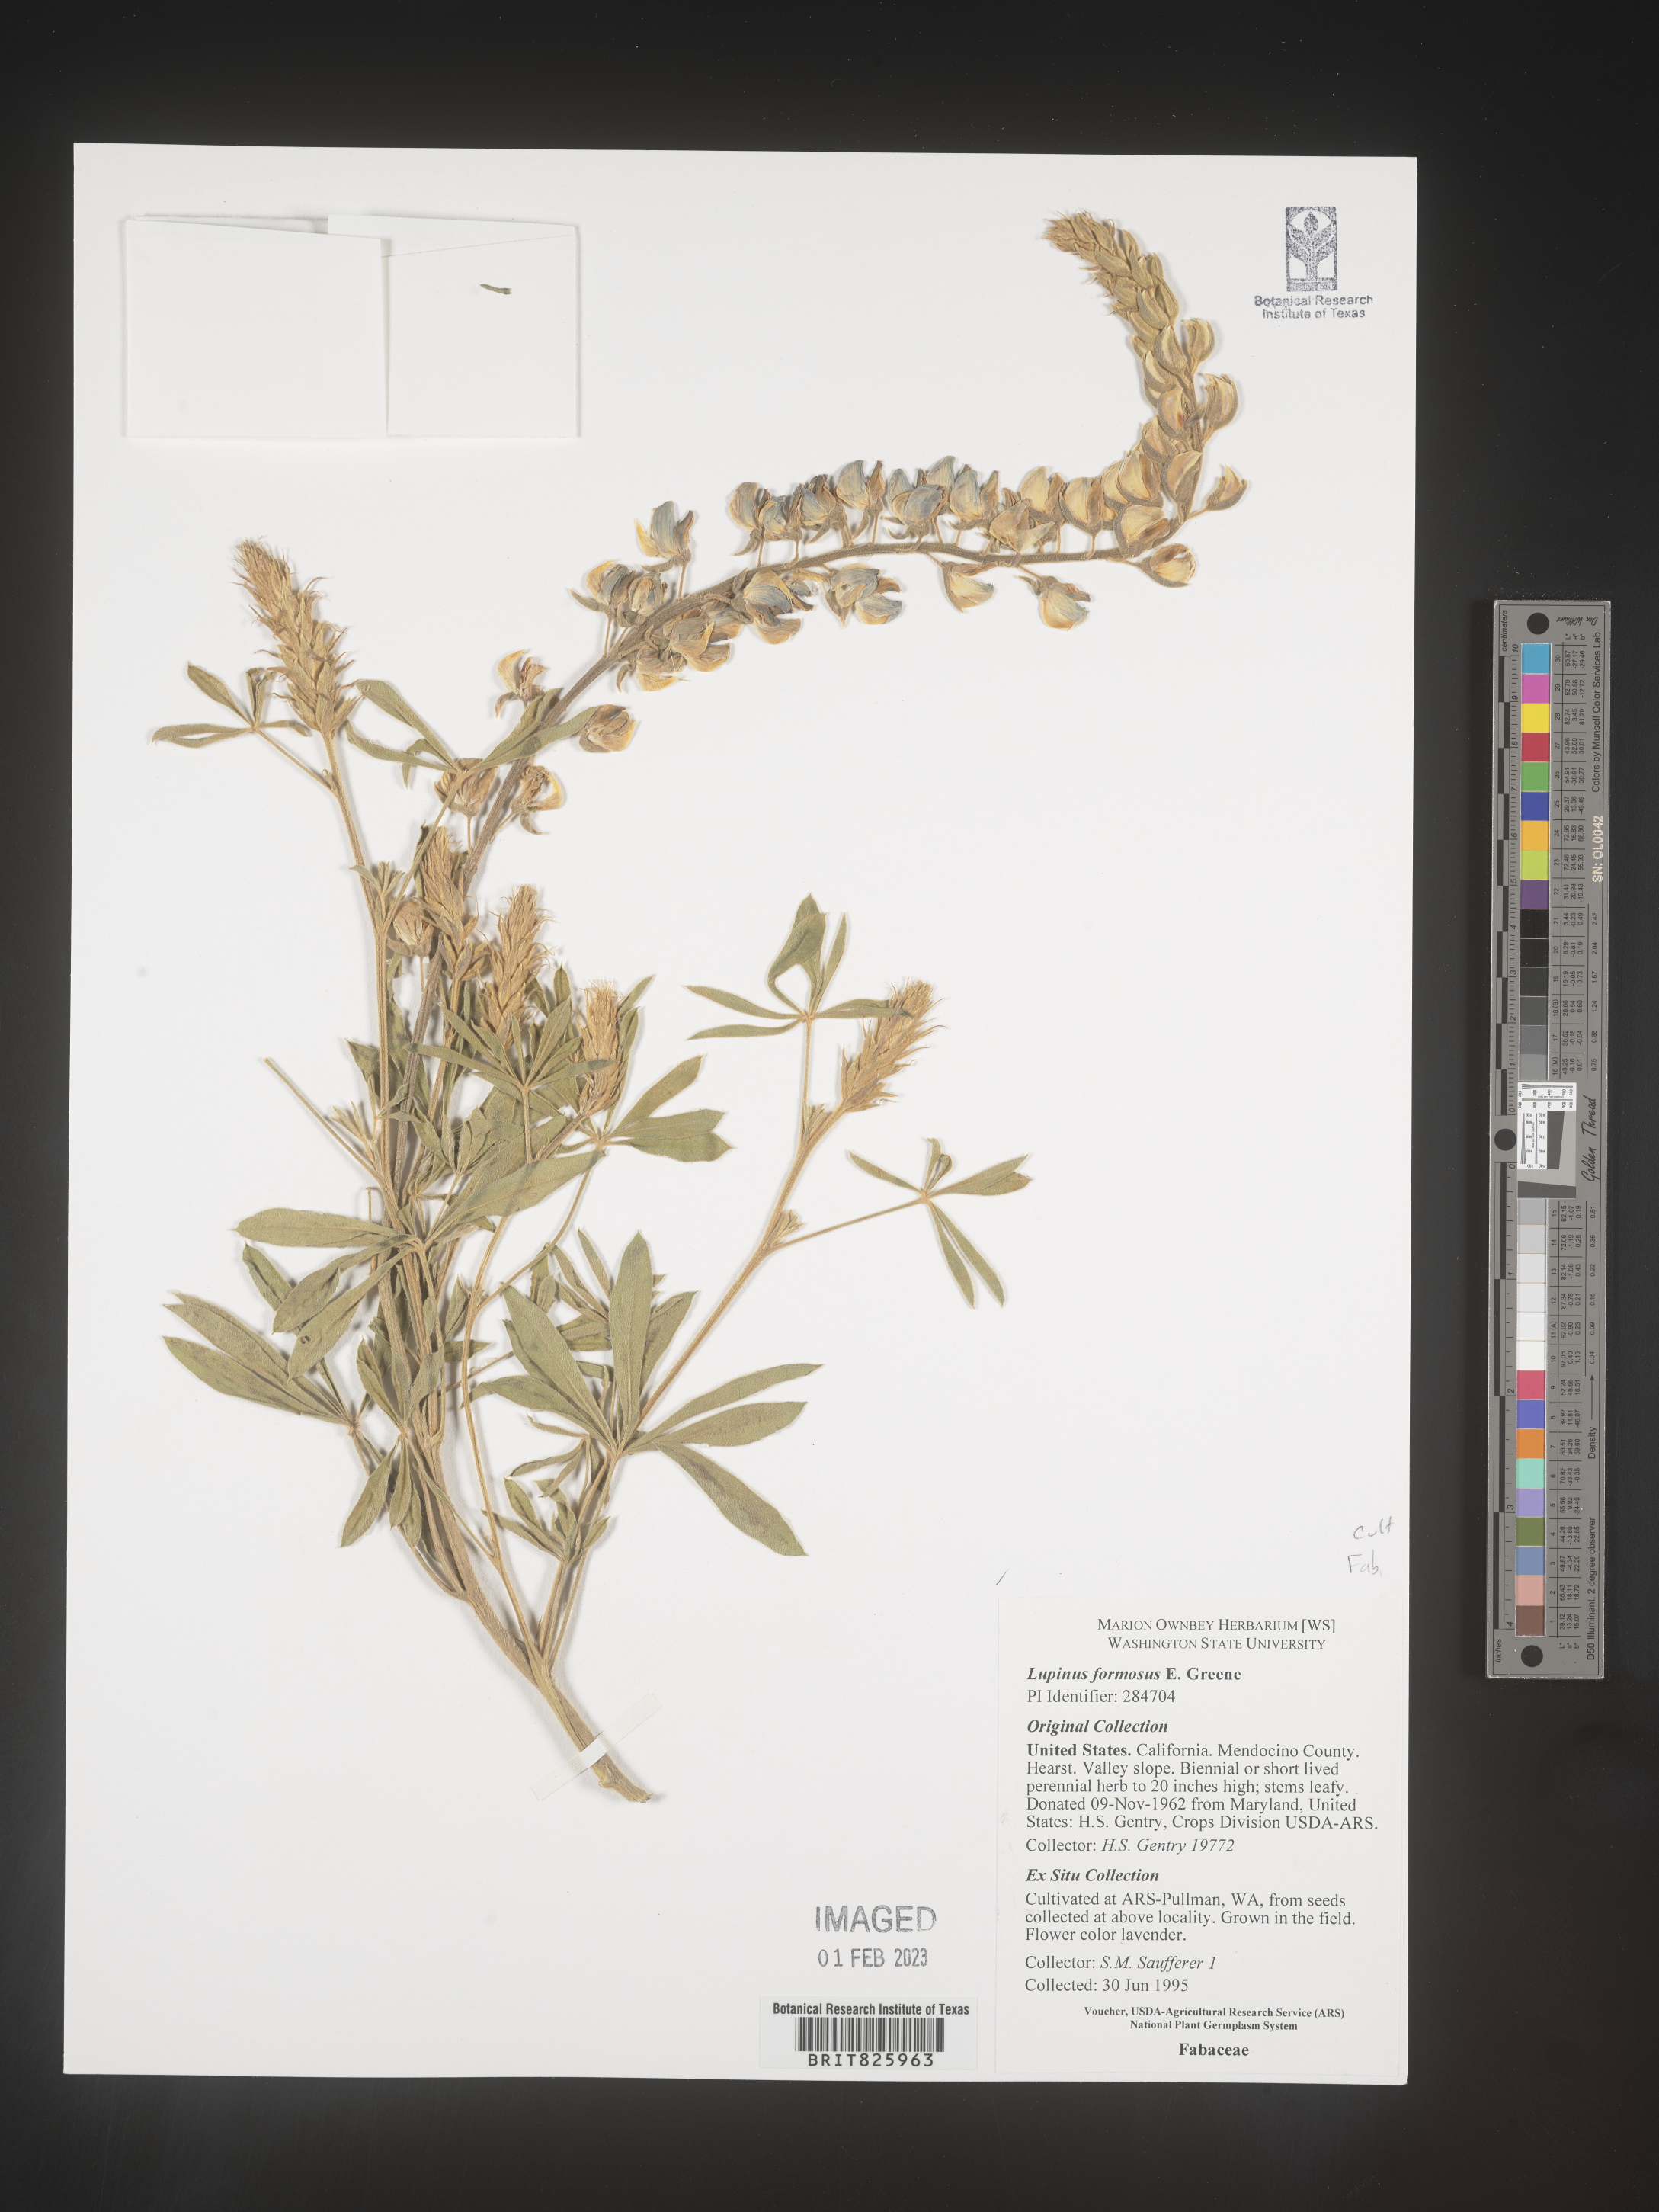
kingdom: Plantae
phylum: Tracheophyta
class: Magnoliopsida
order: Fabales
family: Fabaceae
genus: Lupinus
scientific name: Lupinus
